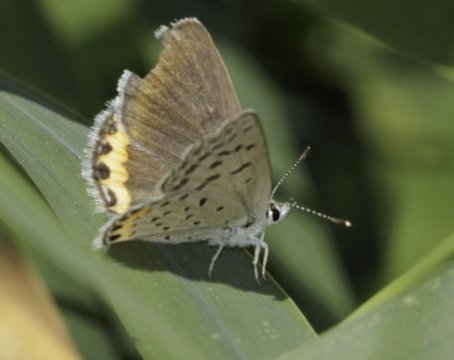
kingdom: Animalia
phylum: Arthropoda
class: Insecta
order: Lepidoptera
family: Lycaenidae
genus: Plebejus
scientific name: Plebejus
